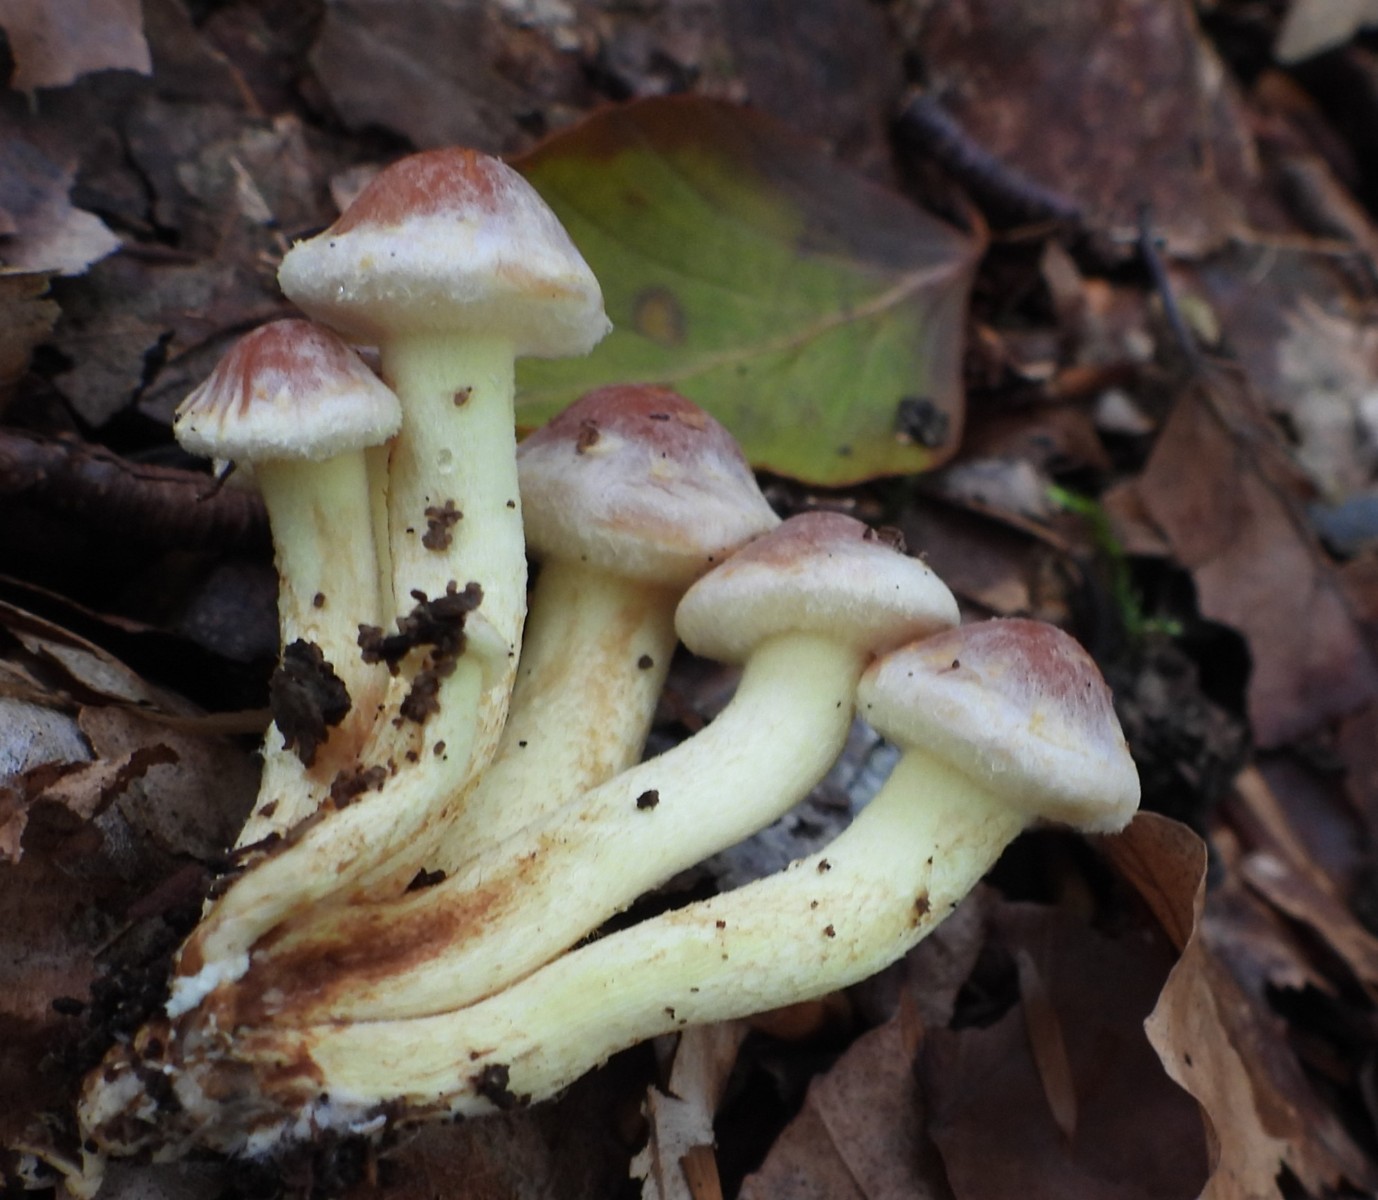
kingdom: Fungi
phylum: Basidiomycota
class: Agaricomycetes
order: Agaricales
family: Strophariaceae
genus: Hypholoma
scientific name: Hypholoma lateritium
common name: teglrød svovlhat
